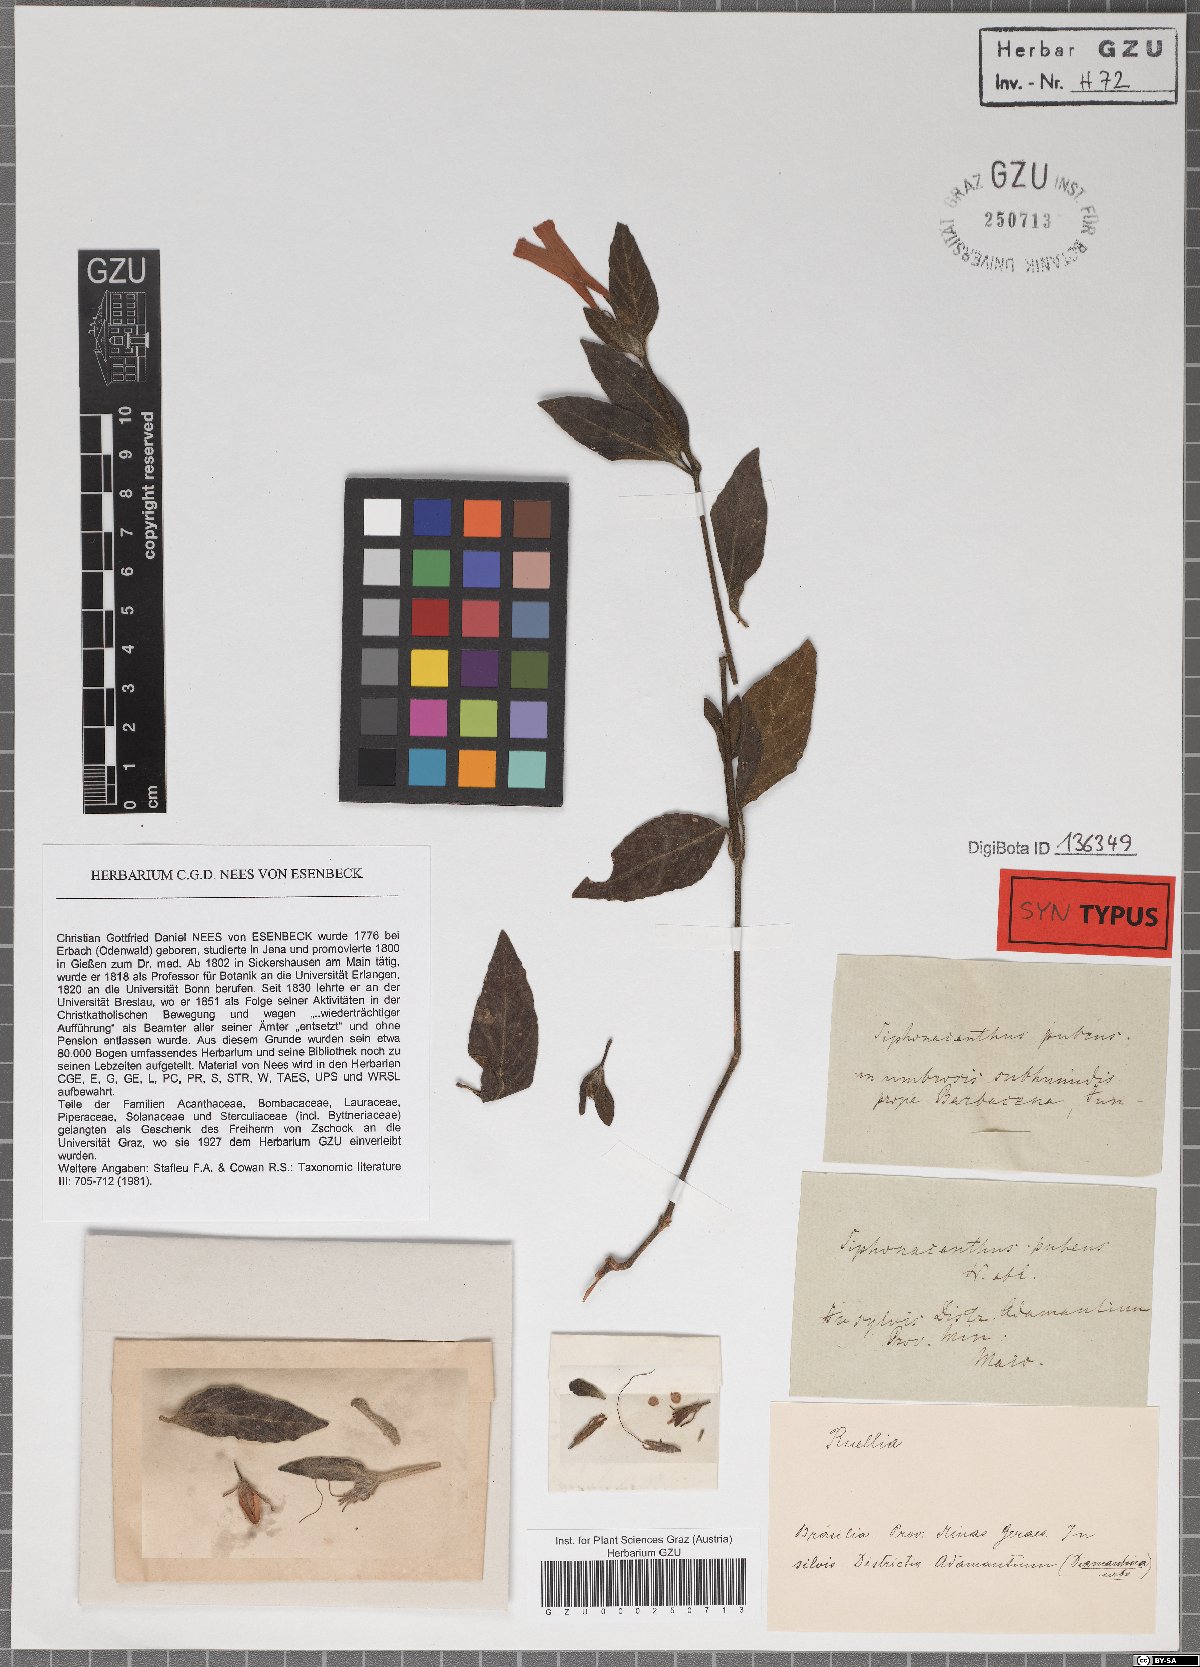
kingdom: Plantae
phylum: Tracheophyta
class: Magnoliopsida
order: Lamiales
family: Acanthaceae
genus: Ruellia
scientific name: Ruellia Siphonacanthus pubens
